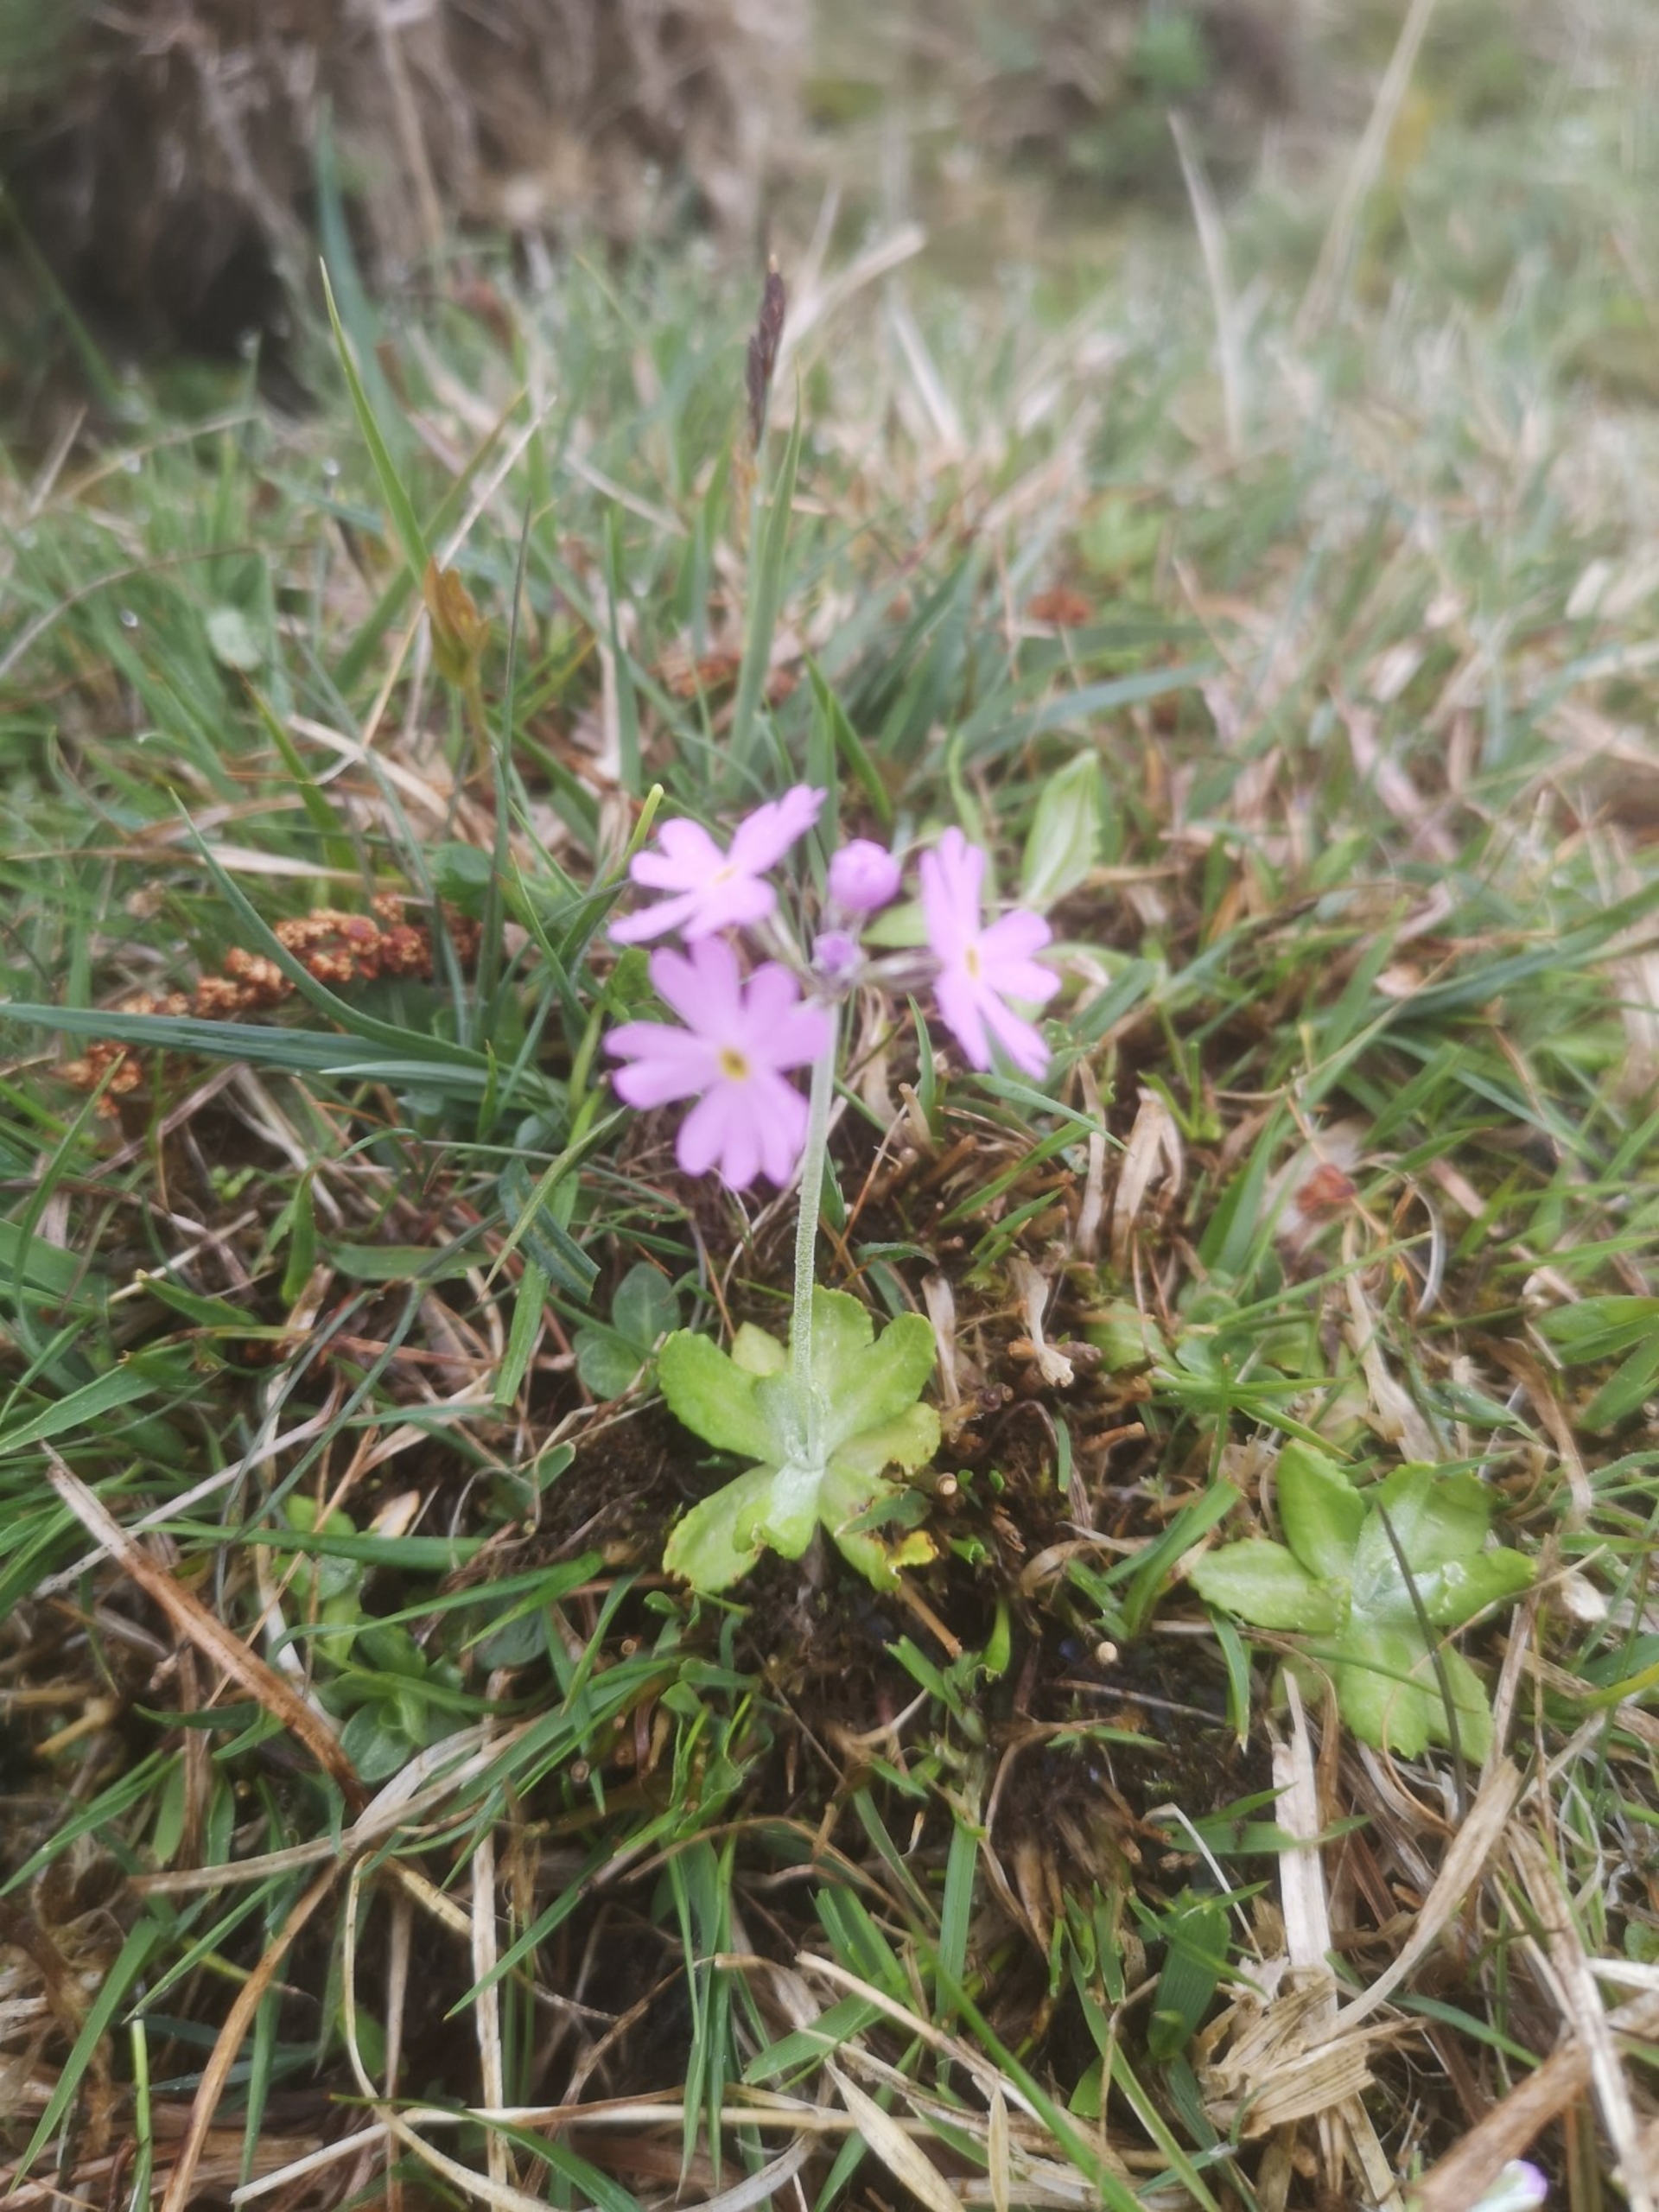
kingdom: Plantae
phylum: Tracheophyta
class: Magnoliopsida
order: Ericales
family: Primulaceae
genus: Primula
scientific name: Primula farinosa
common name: Melet kodriver
